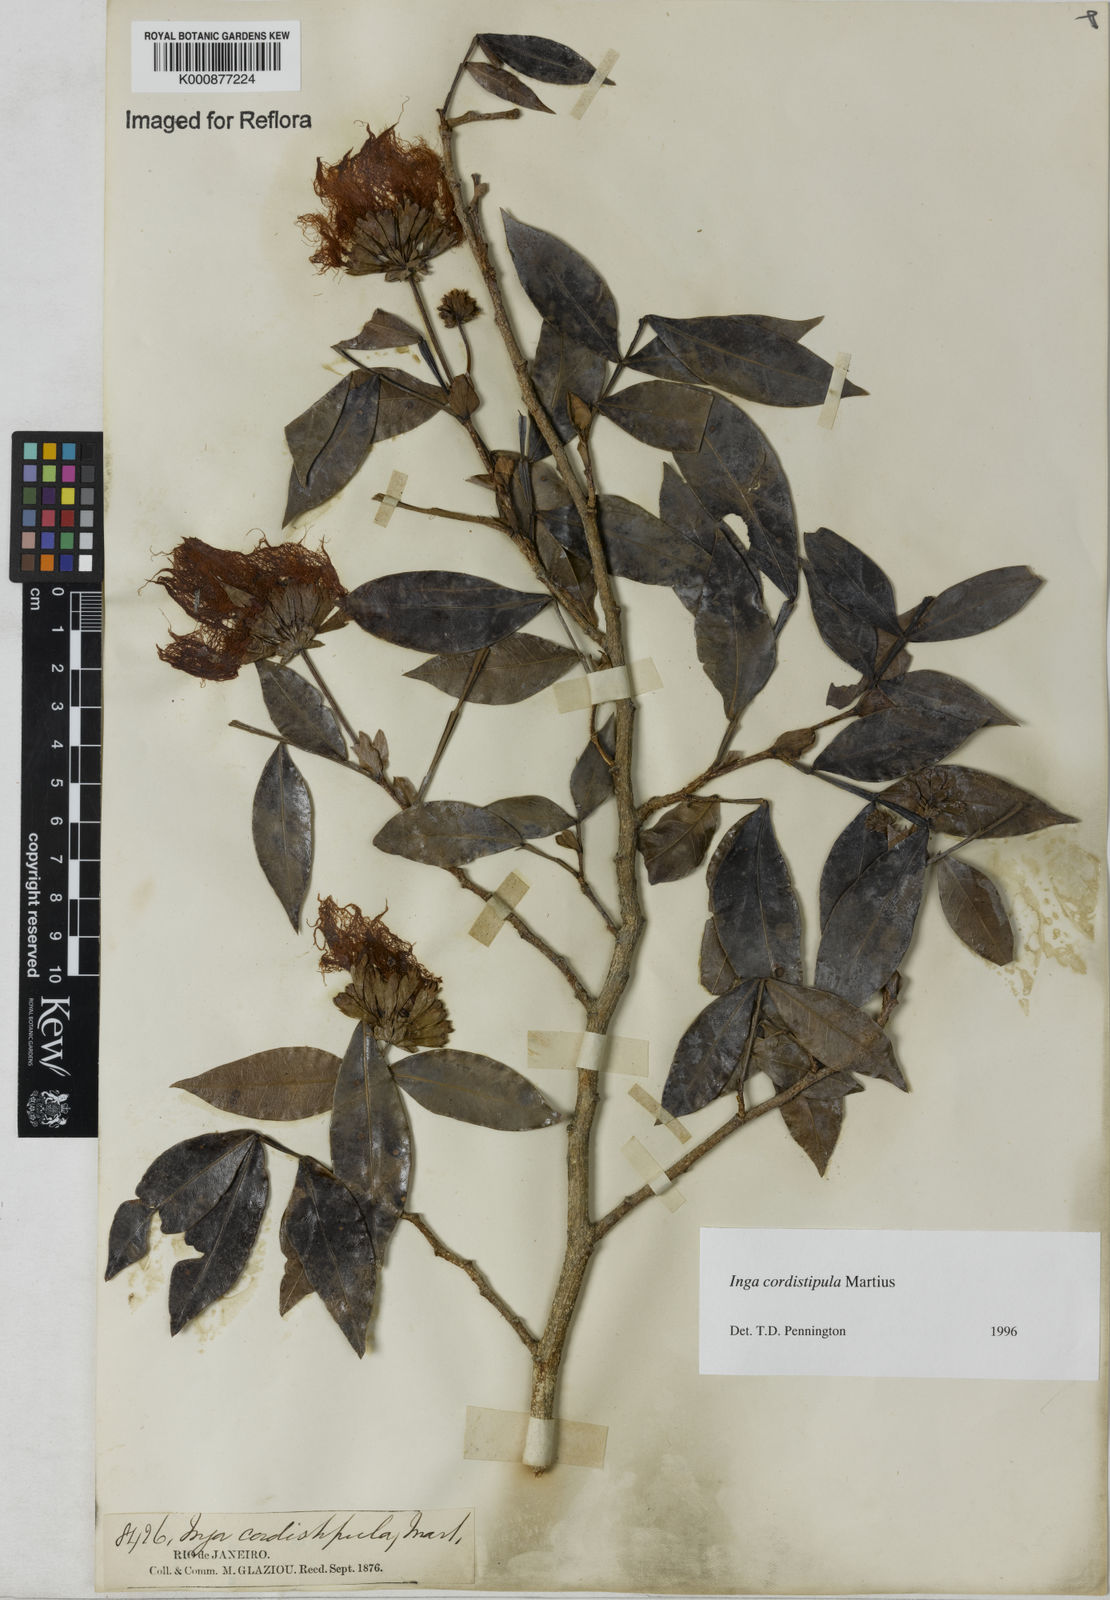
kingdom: Plantae
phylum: Tracheophyta
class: Magnoliopsida
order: Fabales
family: Fabaceae
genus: Inga
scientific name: Inga cordistipula
